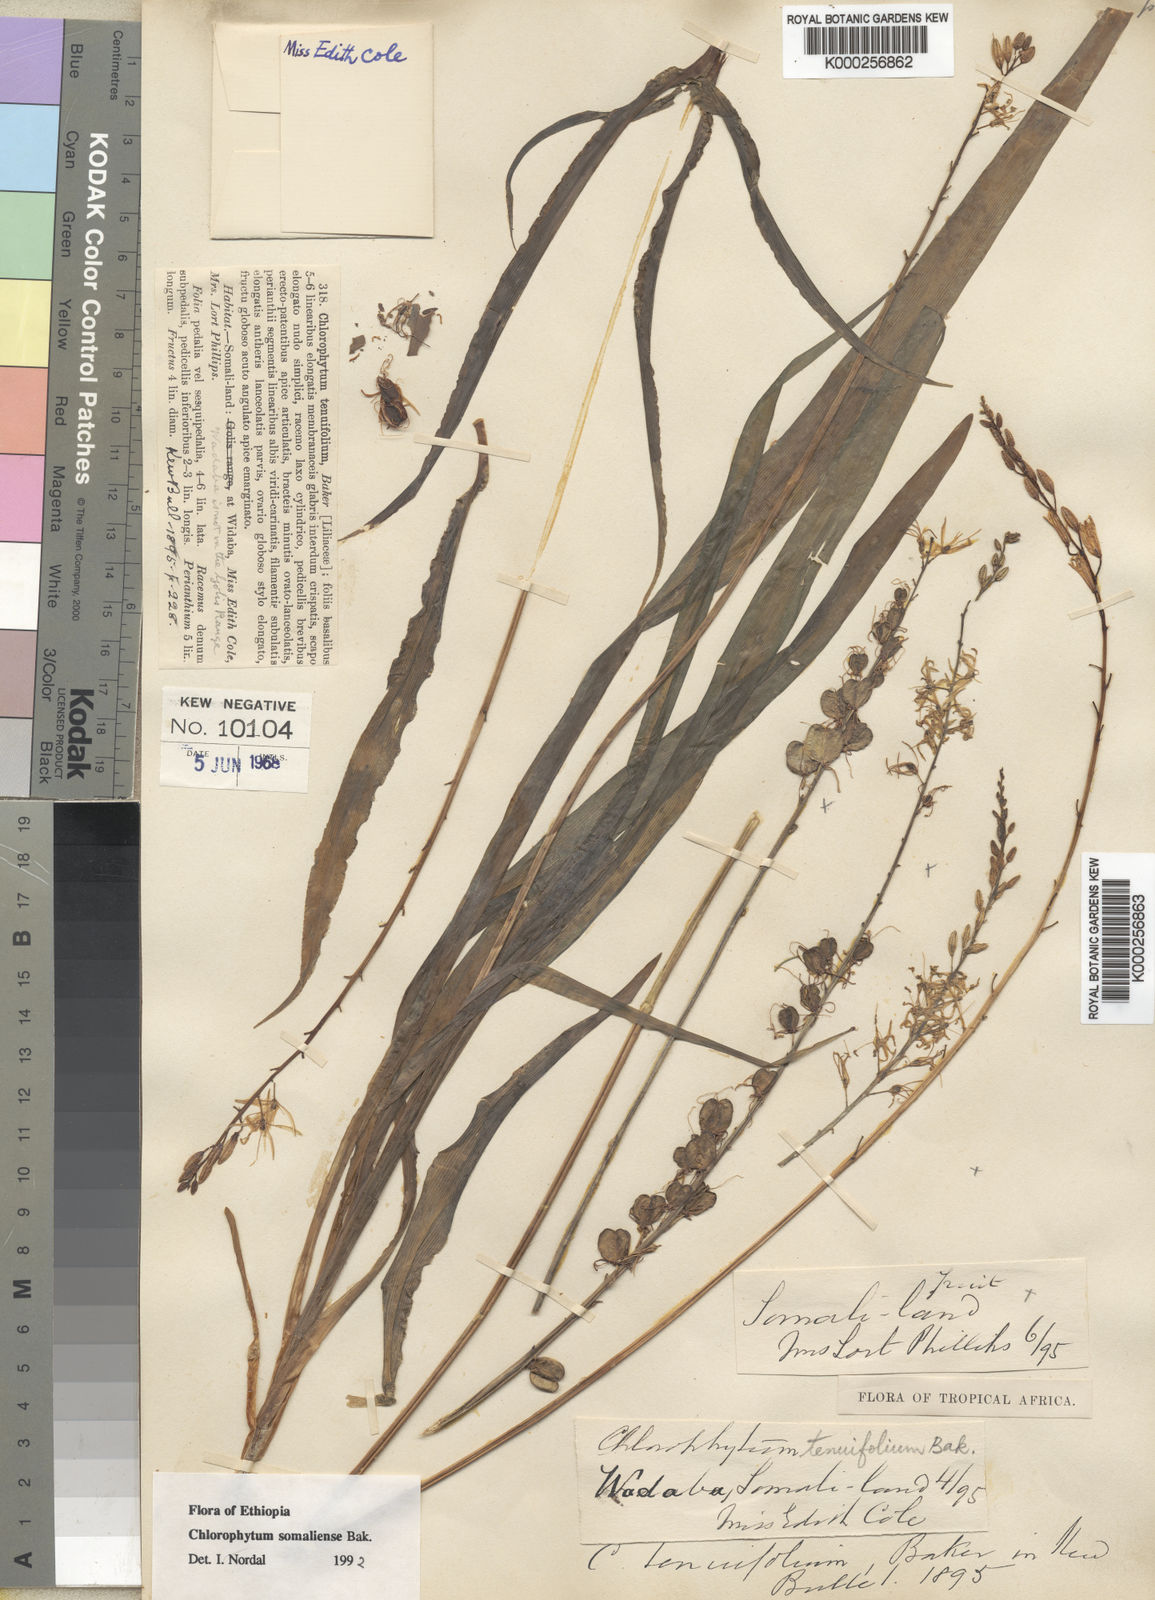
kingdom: Plantae
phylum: Tracheophyta
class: Liliopsida
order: Asparagales
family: Asparagaceae
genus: Chlorophytum
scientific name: Chlorophytum somaliense
